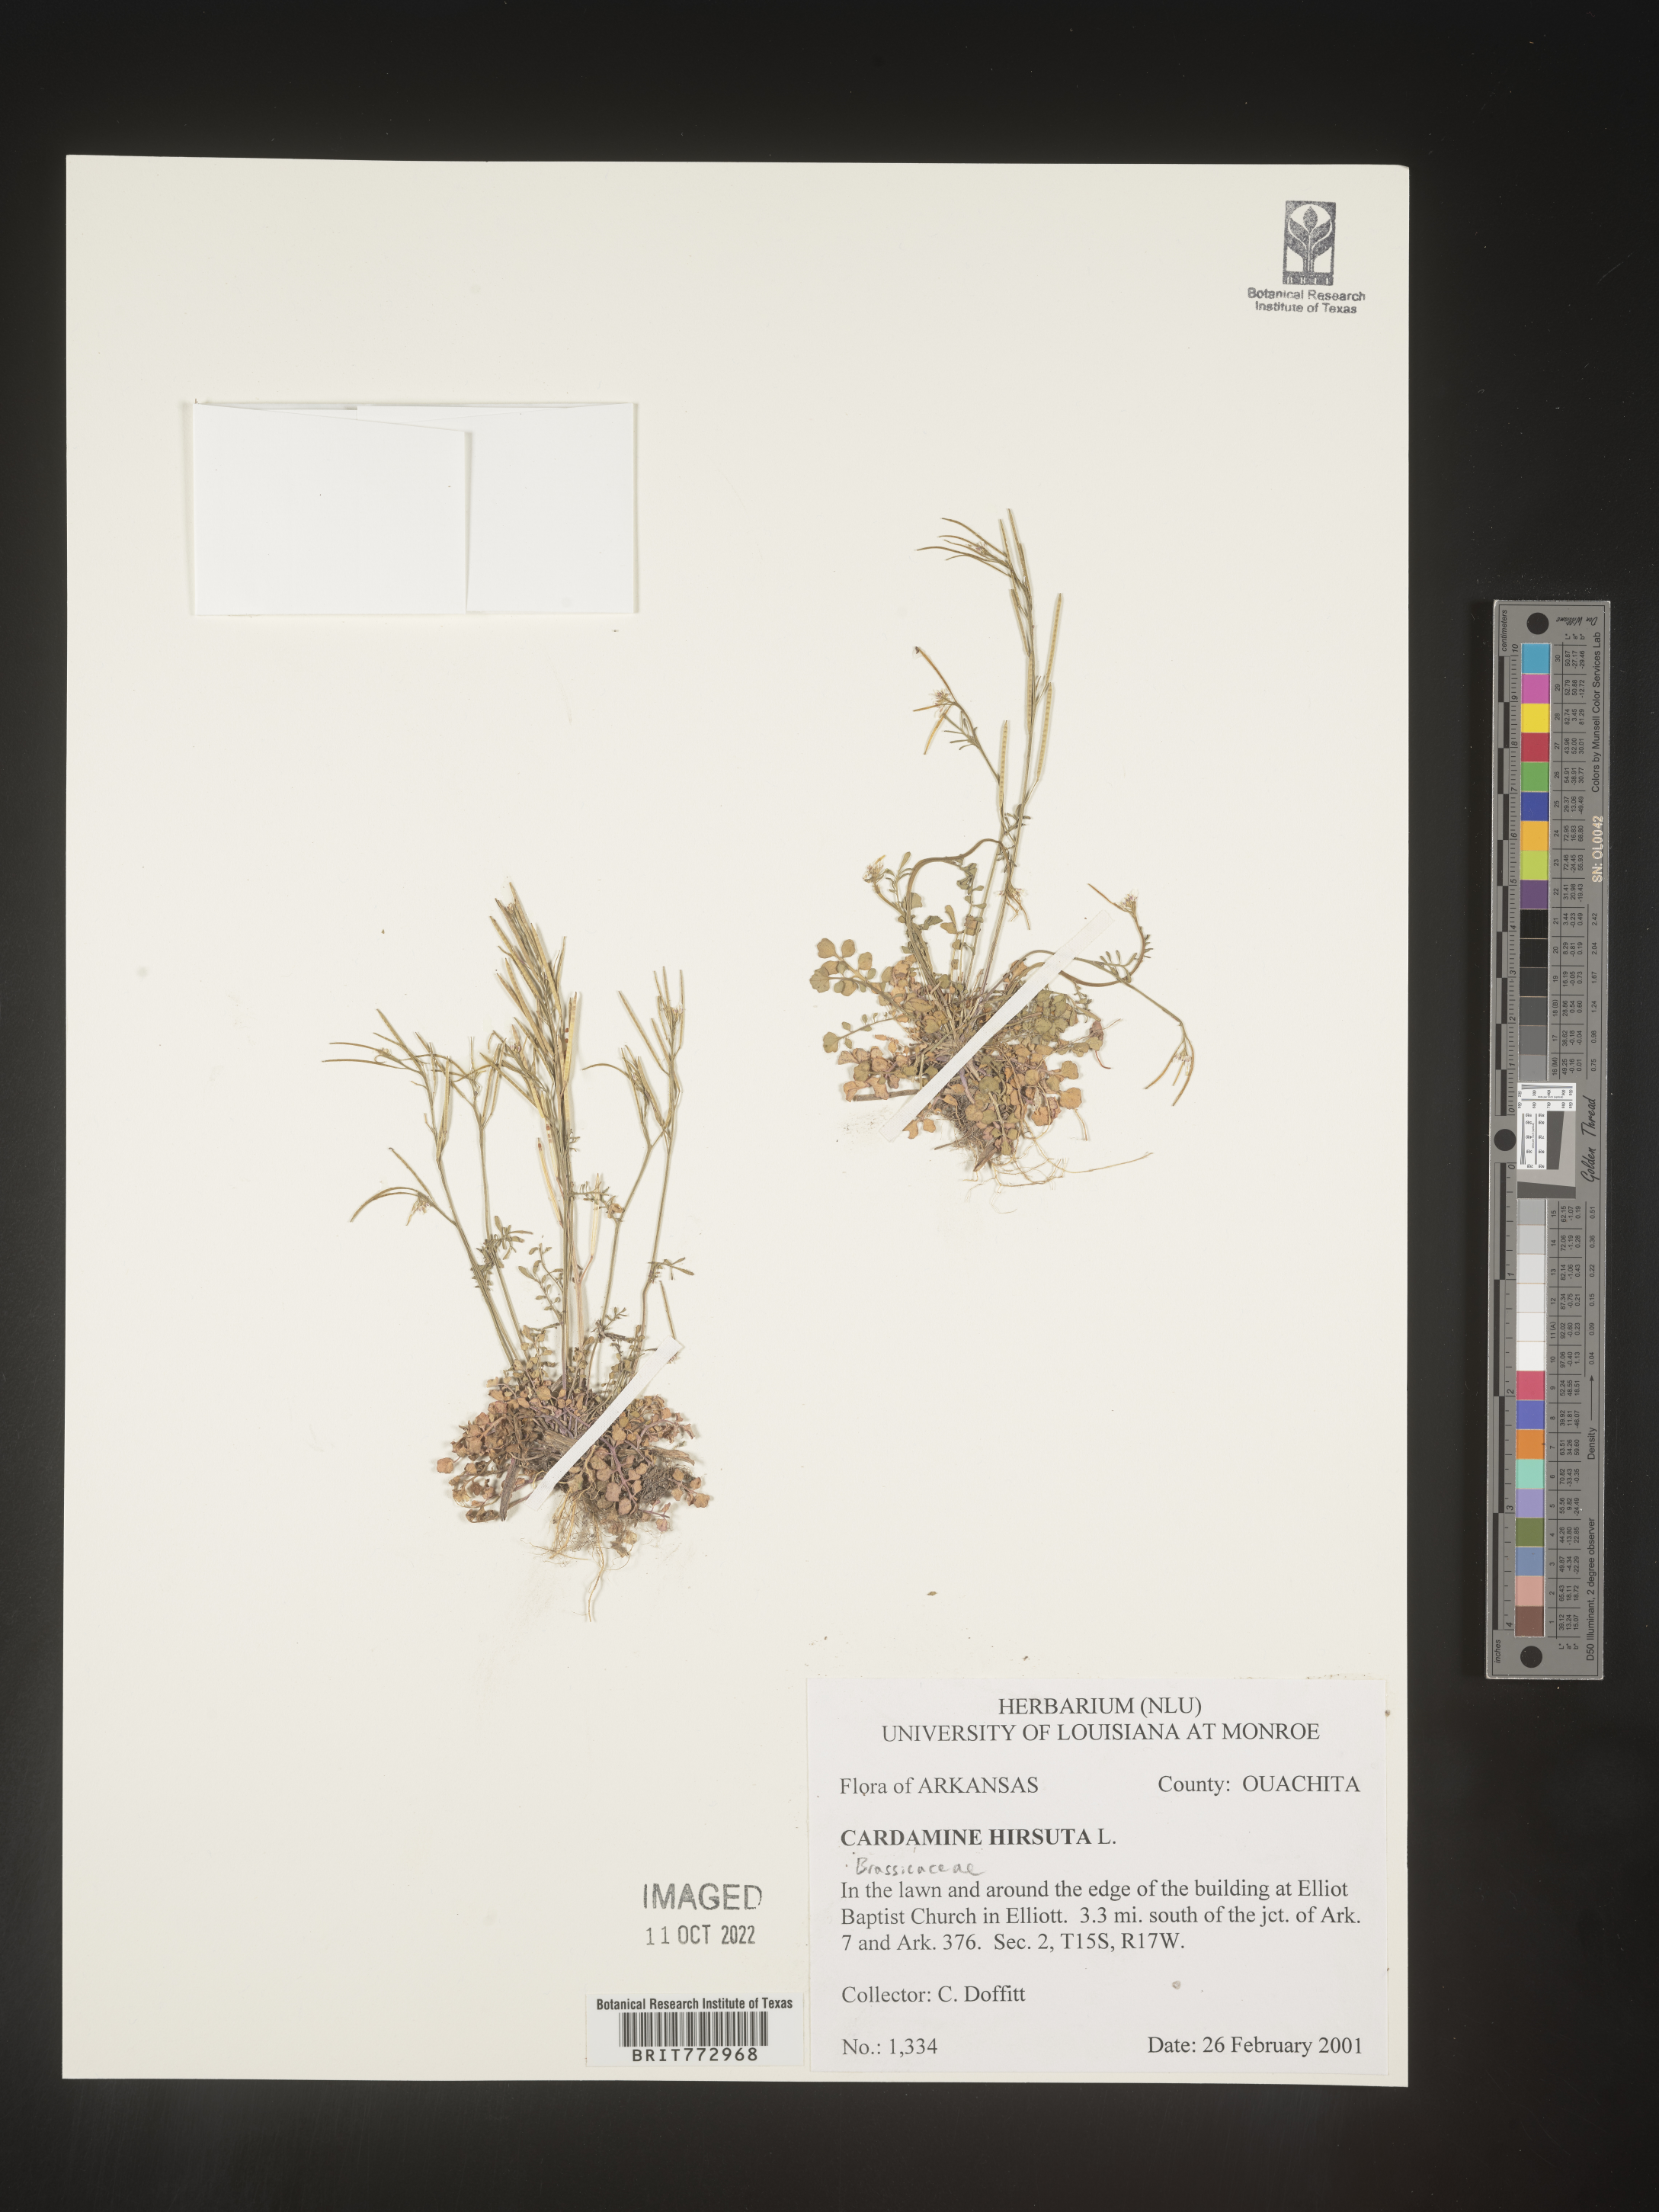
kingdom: Plantae
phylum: Tracheophyta
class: Magnoliopsida
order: Brassicales
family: Brassicaceae
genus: Cardamine
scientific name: Cardamine hirsuta
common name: Hairy bittercress
